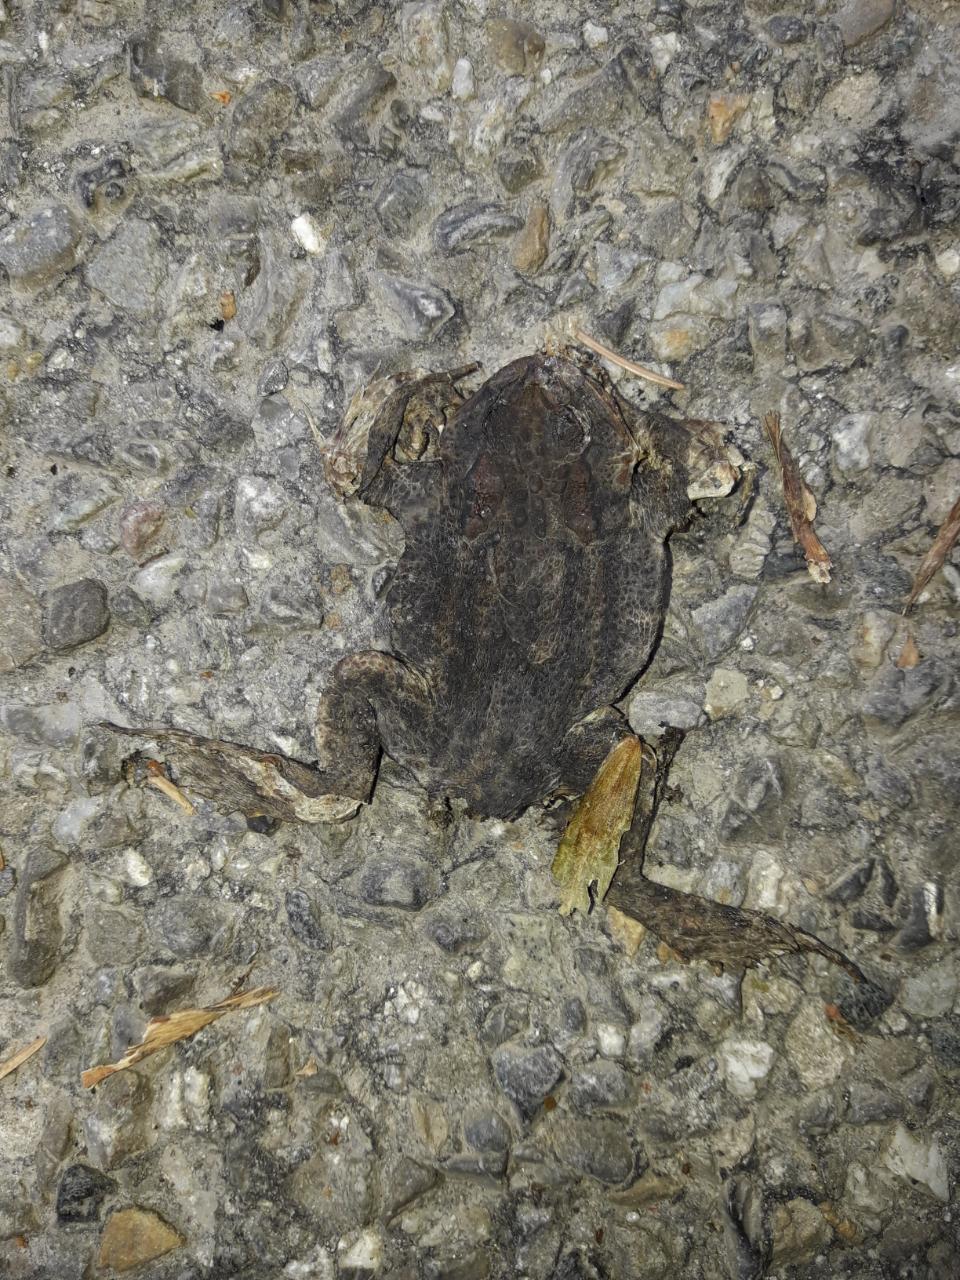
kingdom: Animalia
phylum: Chordata
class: Amphibia
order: Anura
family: Bufonidae
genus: Bufo
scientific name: Bufo bufo
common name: Common toad
